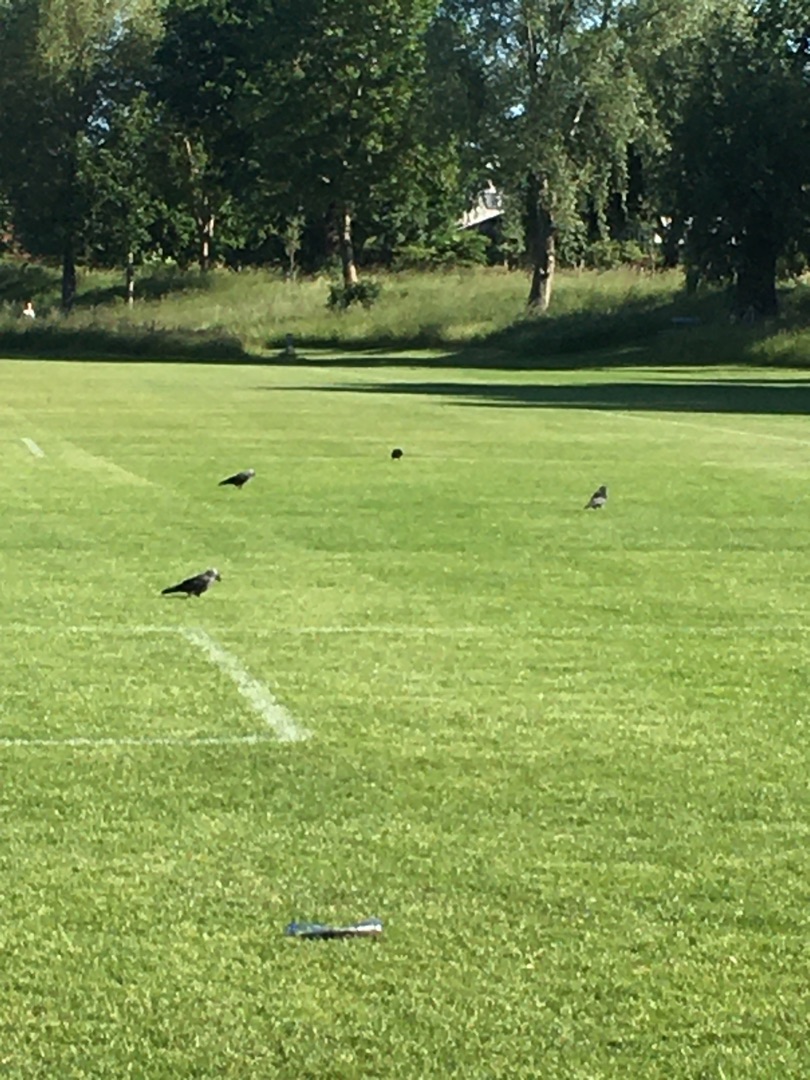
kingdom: Animalia
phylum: Chordata
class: Aves
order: Passeriformes
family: Corvidae
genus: Coloeus
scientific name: Coloeus monedula
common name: Allike
